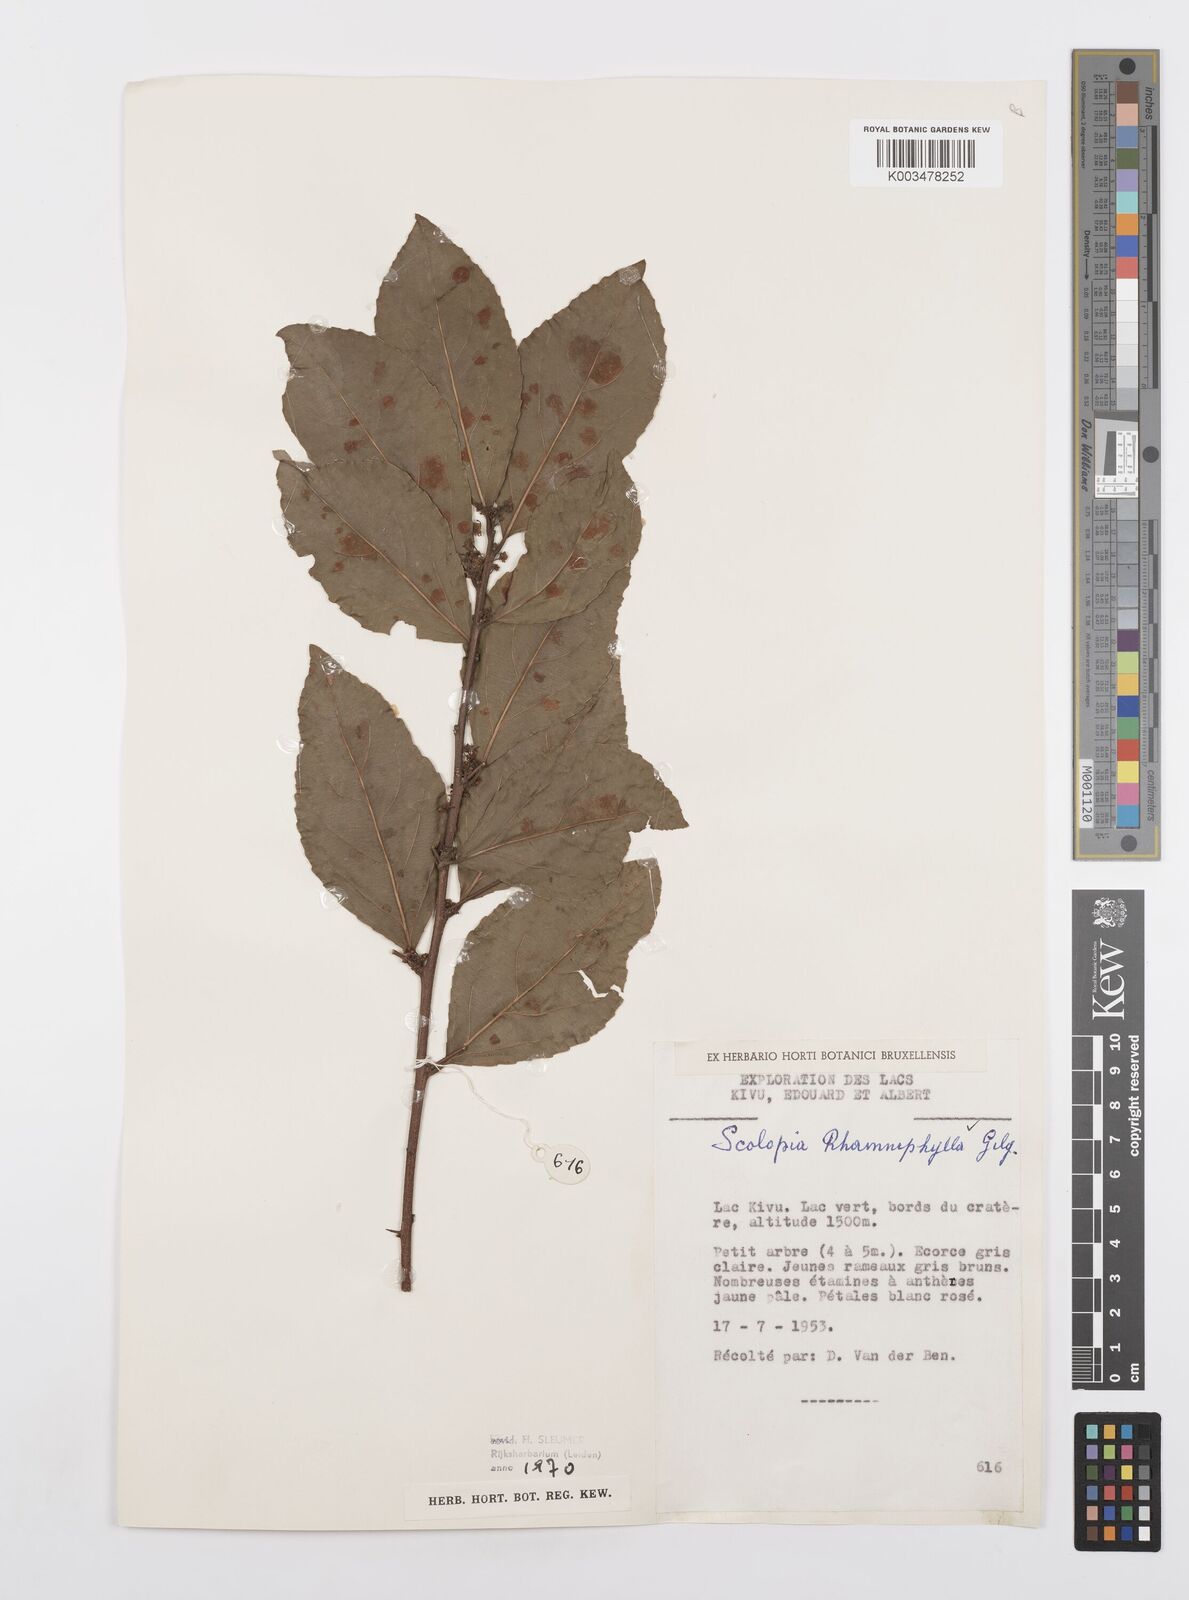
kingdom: Plantae
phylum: Tracheophyta
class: Magnoliopsida
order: Malpighiales
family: Salicaceae
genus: Scolopia
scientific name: Scolopia rhamniphylla
